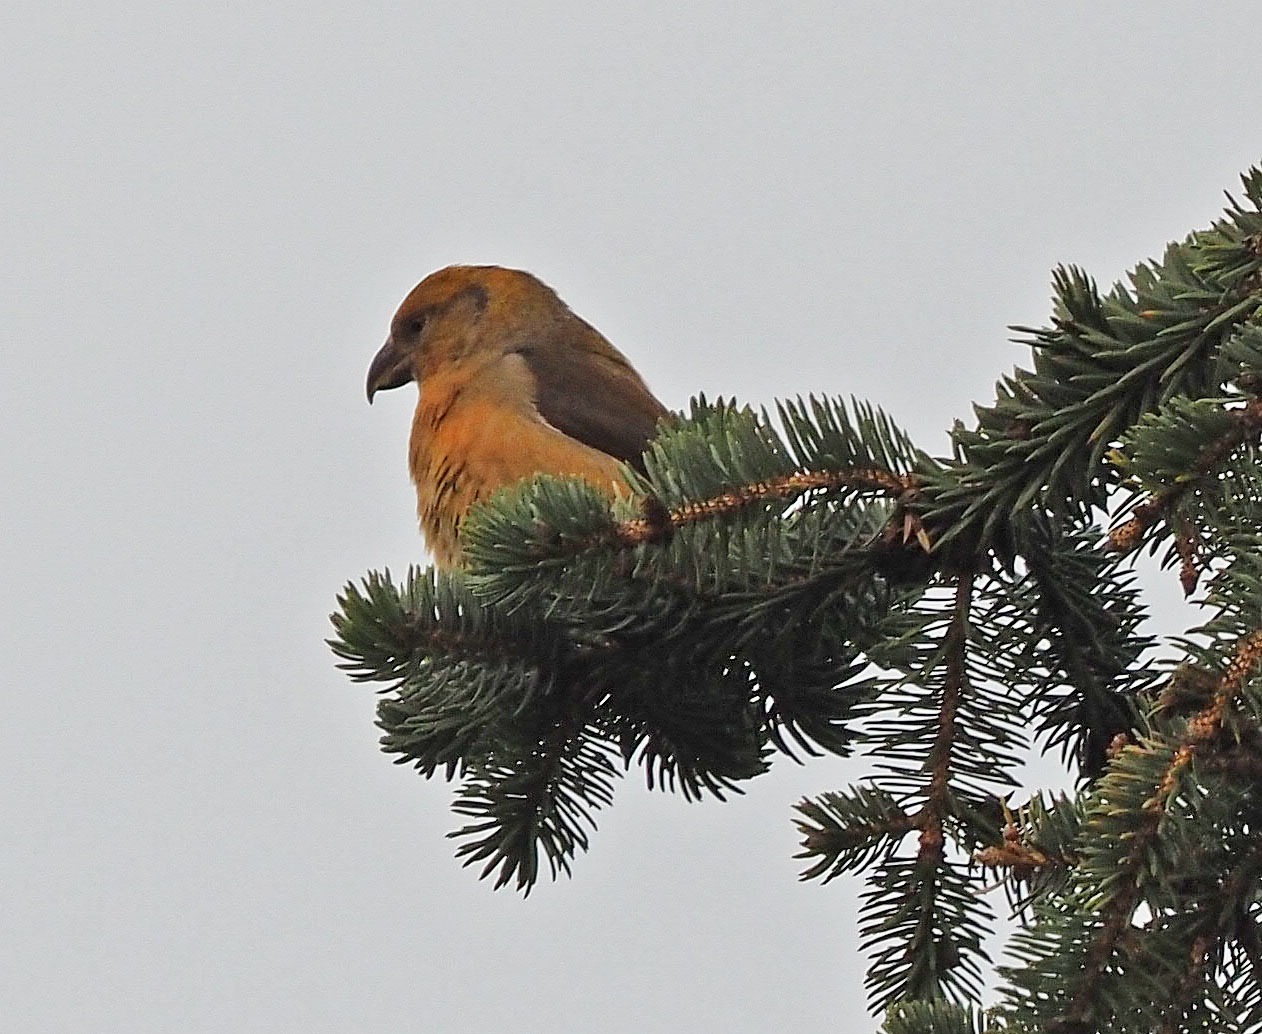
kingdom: Animalia
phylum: Chordata
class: Aves
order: Passeriformes
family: Fringillidae
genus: Loxia
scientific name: Loxia curvirostra
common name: Lille korsnæb
